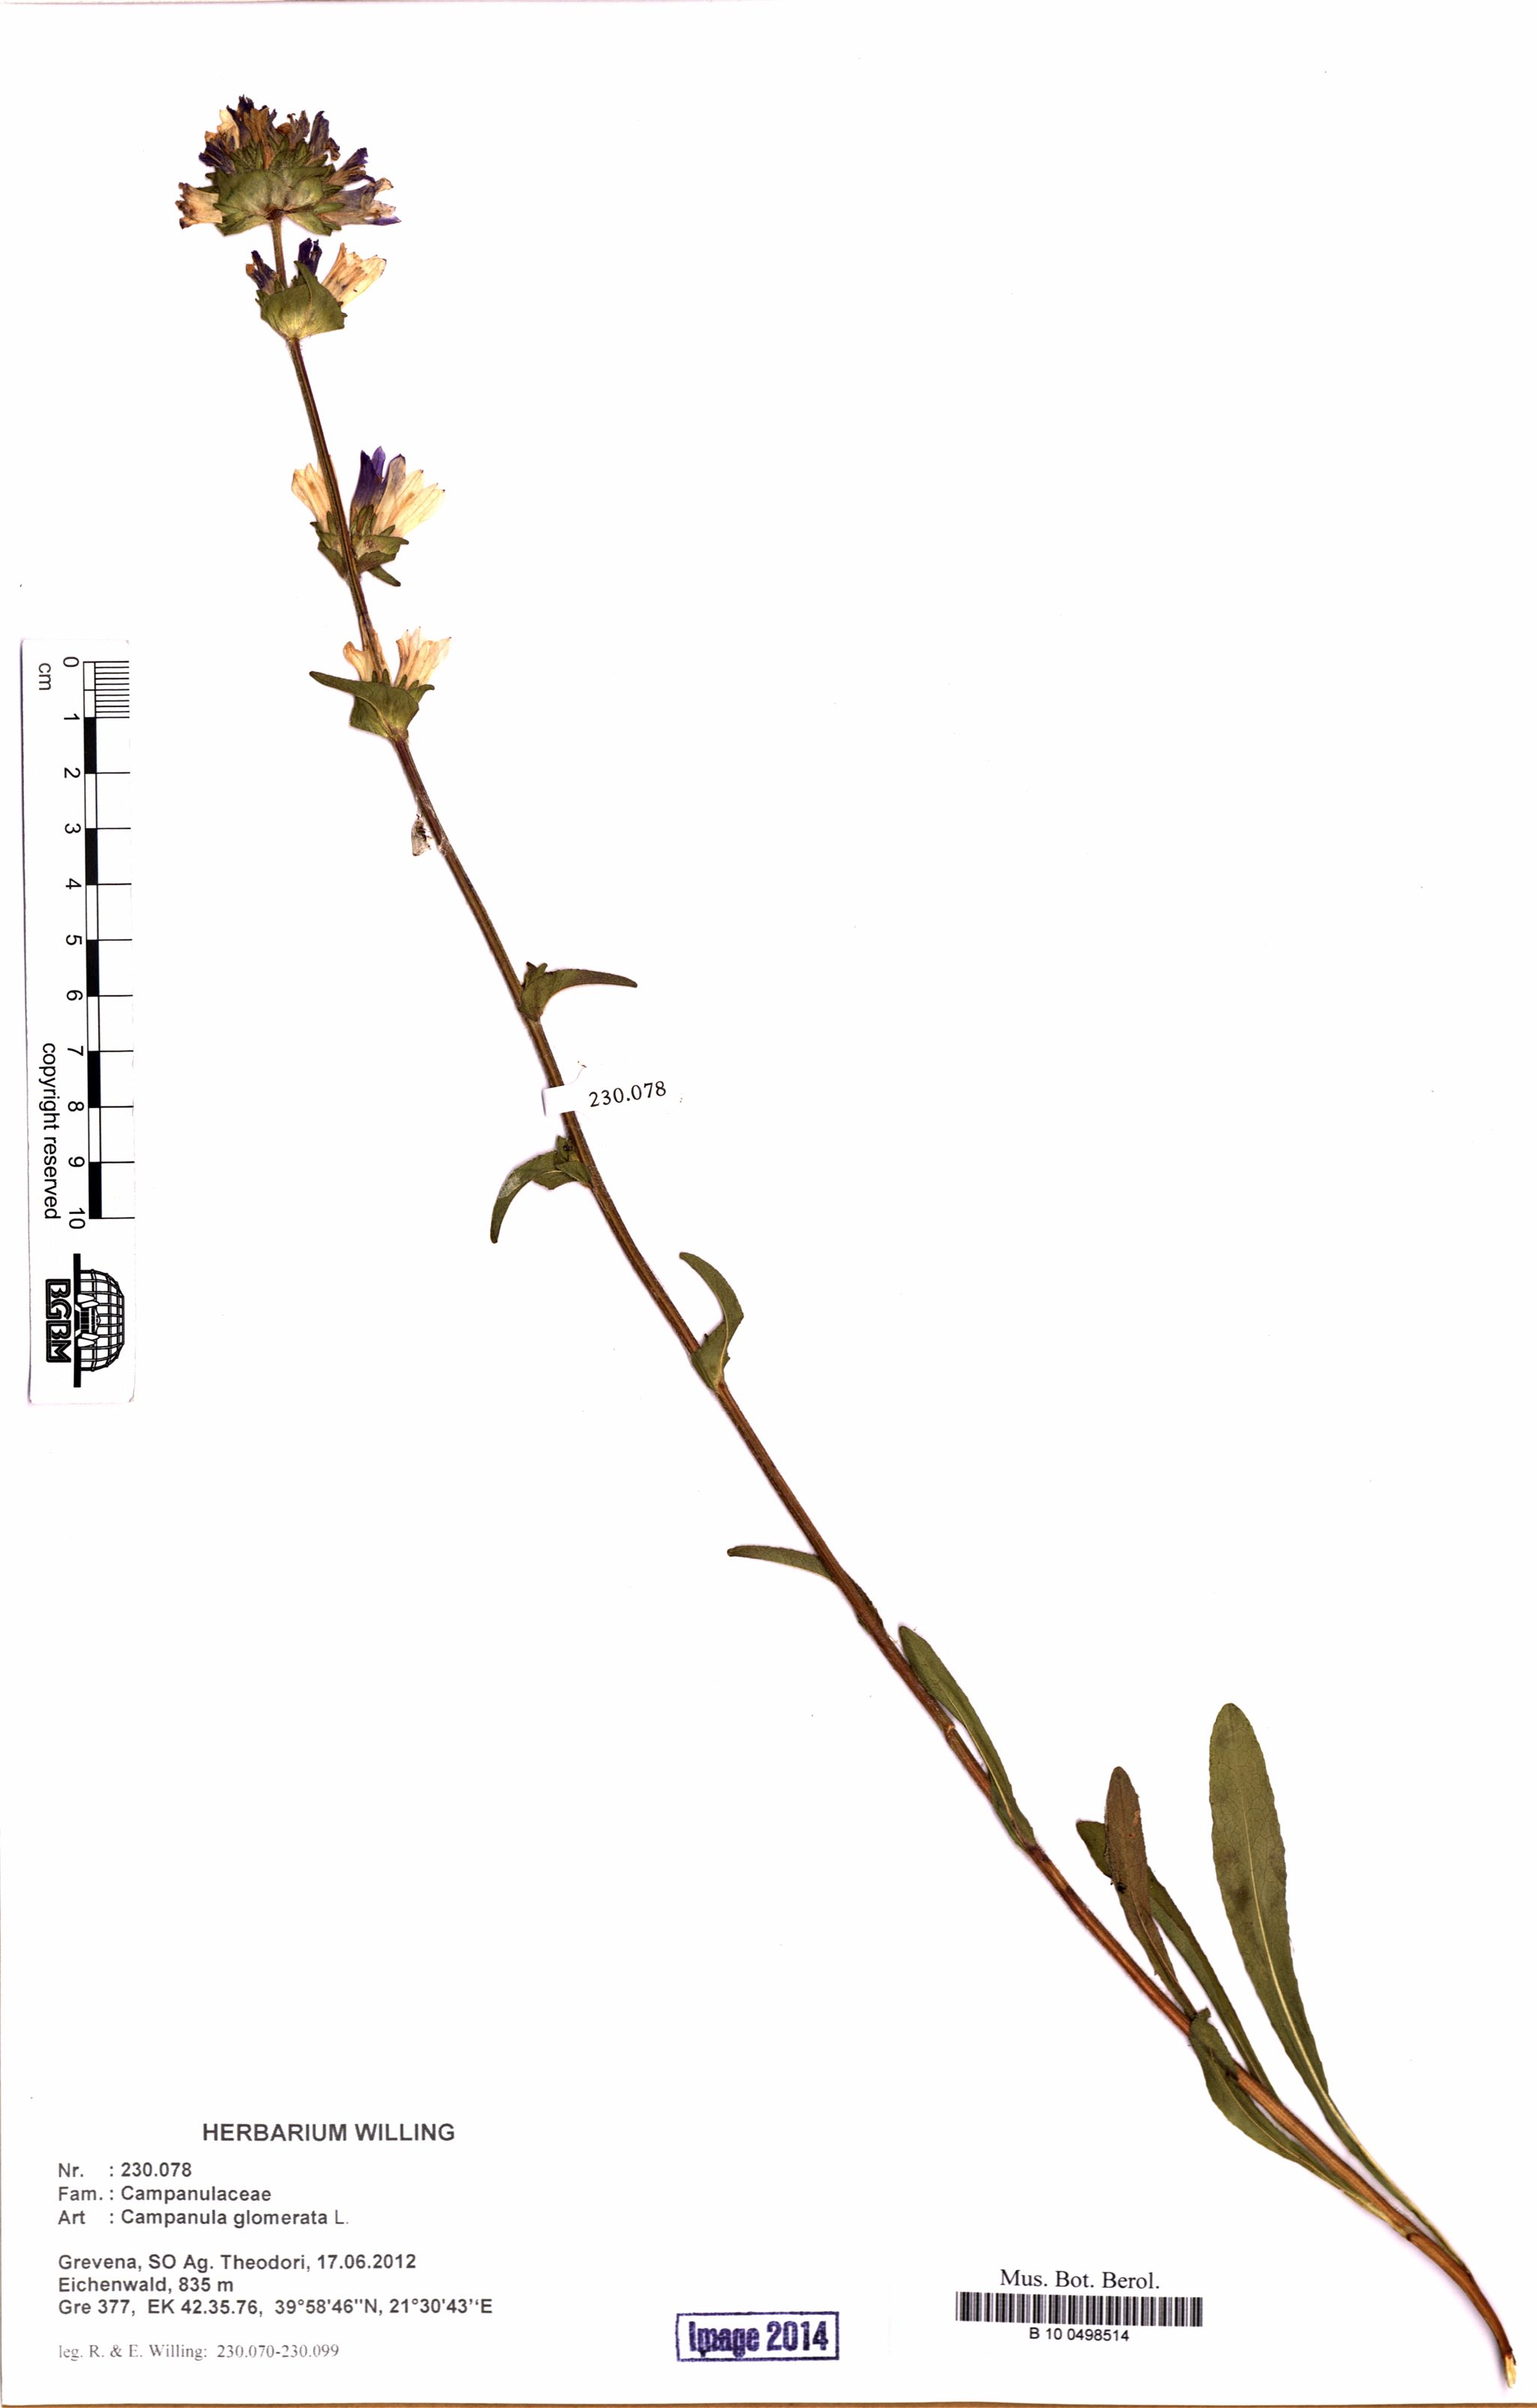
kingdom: Plantae
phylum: Tracheophyta
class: Magnoliopsida
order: Asterales
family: Campanulaceae
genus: Campanula
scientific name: Campanula glomerata
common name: Clustered bellflower
